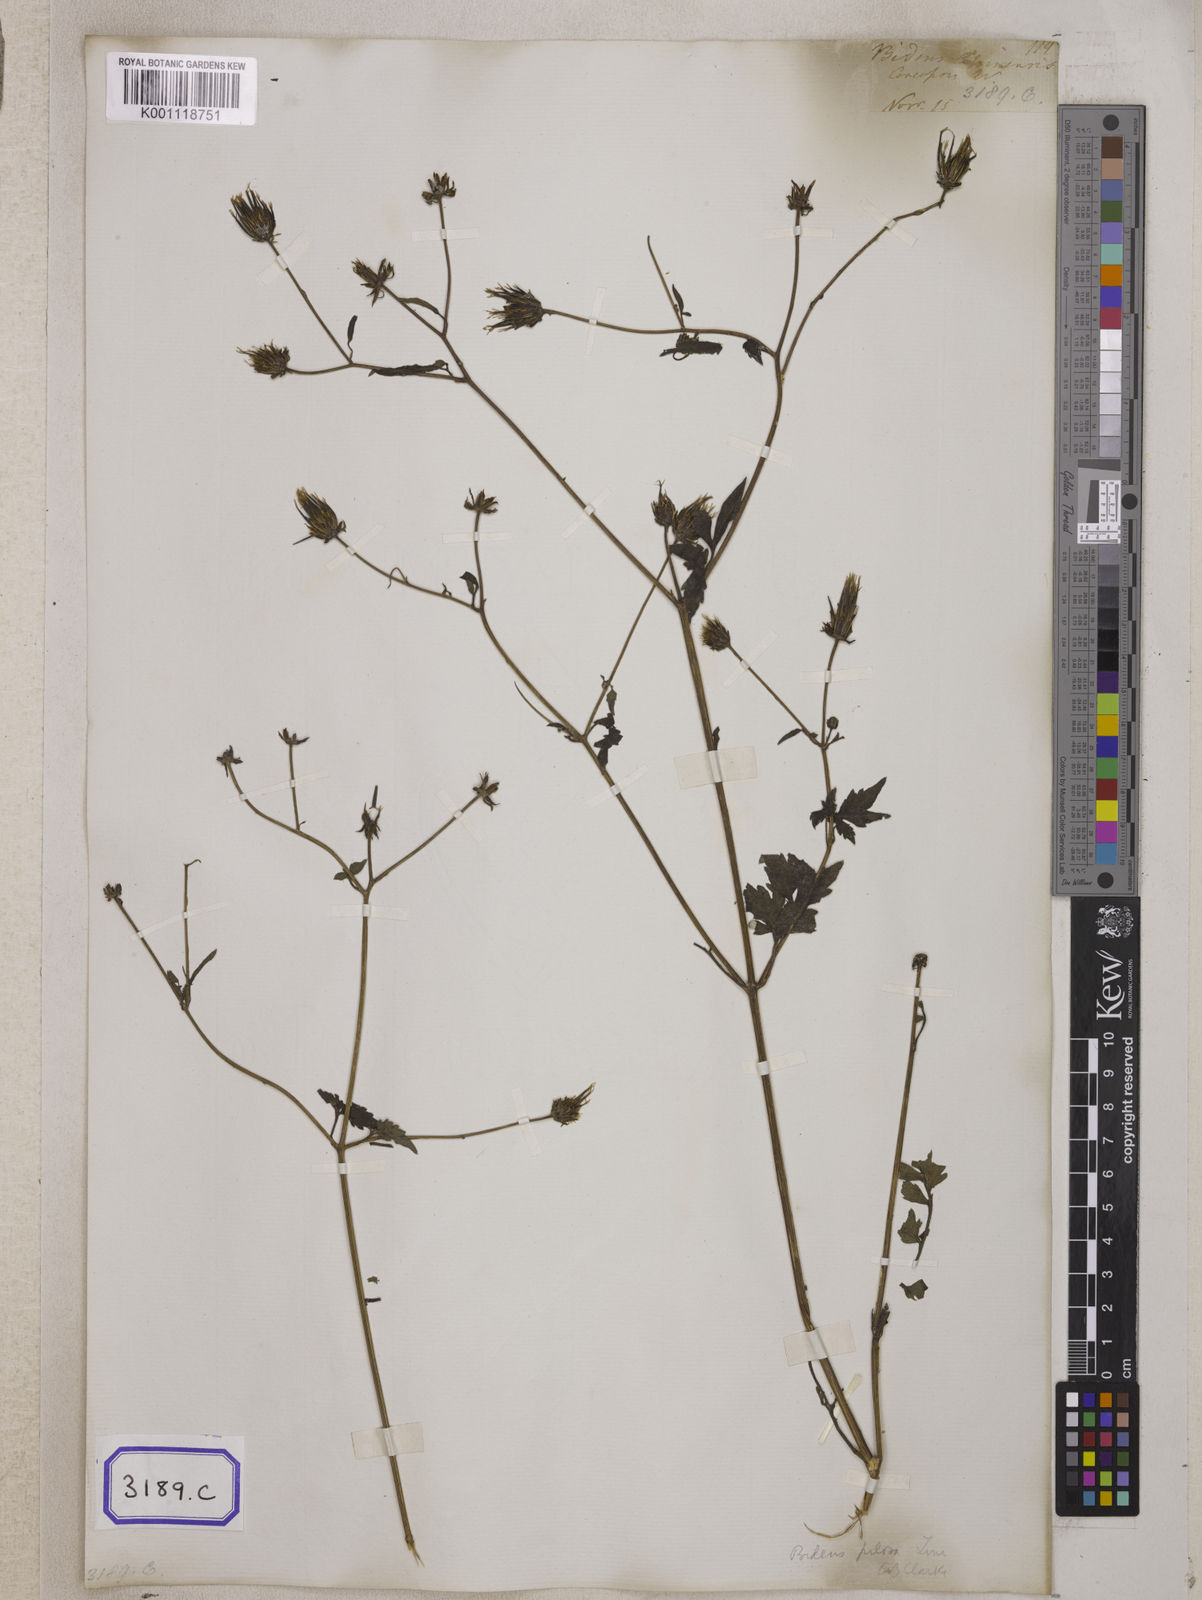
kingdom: Plantae
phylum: Tracheophyta
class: Magnoliopsida
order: Asterales
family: Asteraceae
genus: Bidens
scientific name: Bidens biternata
